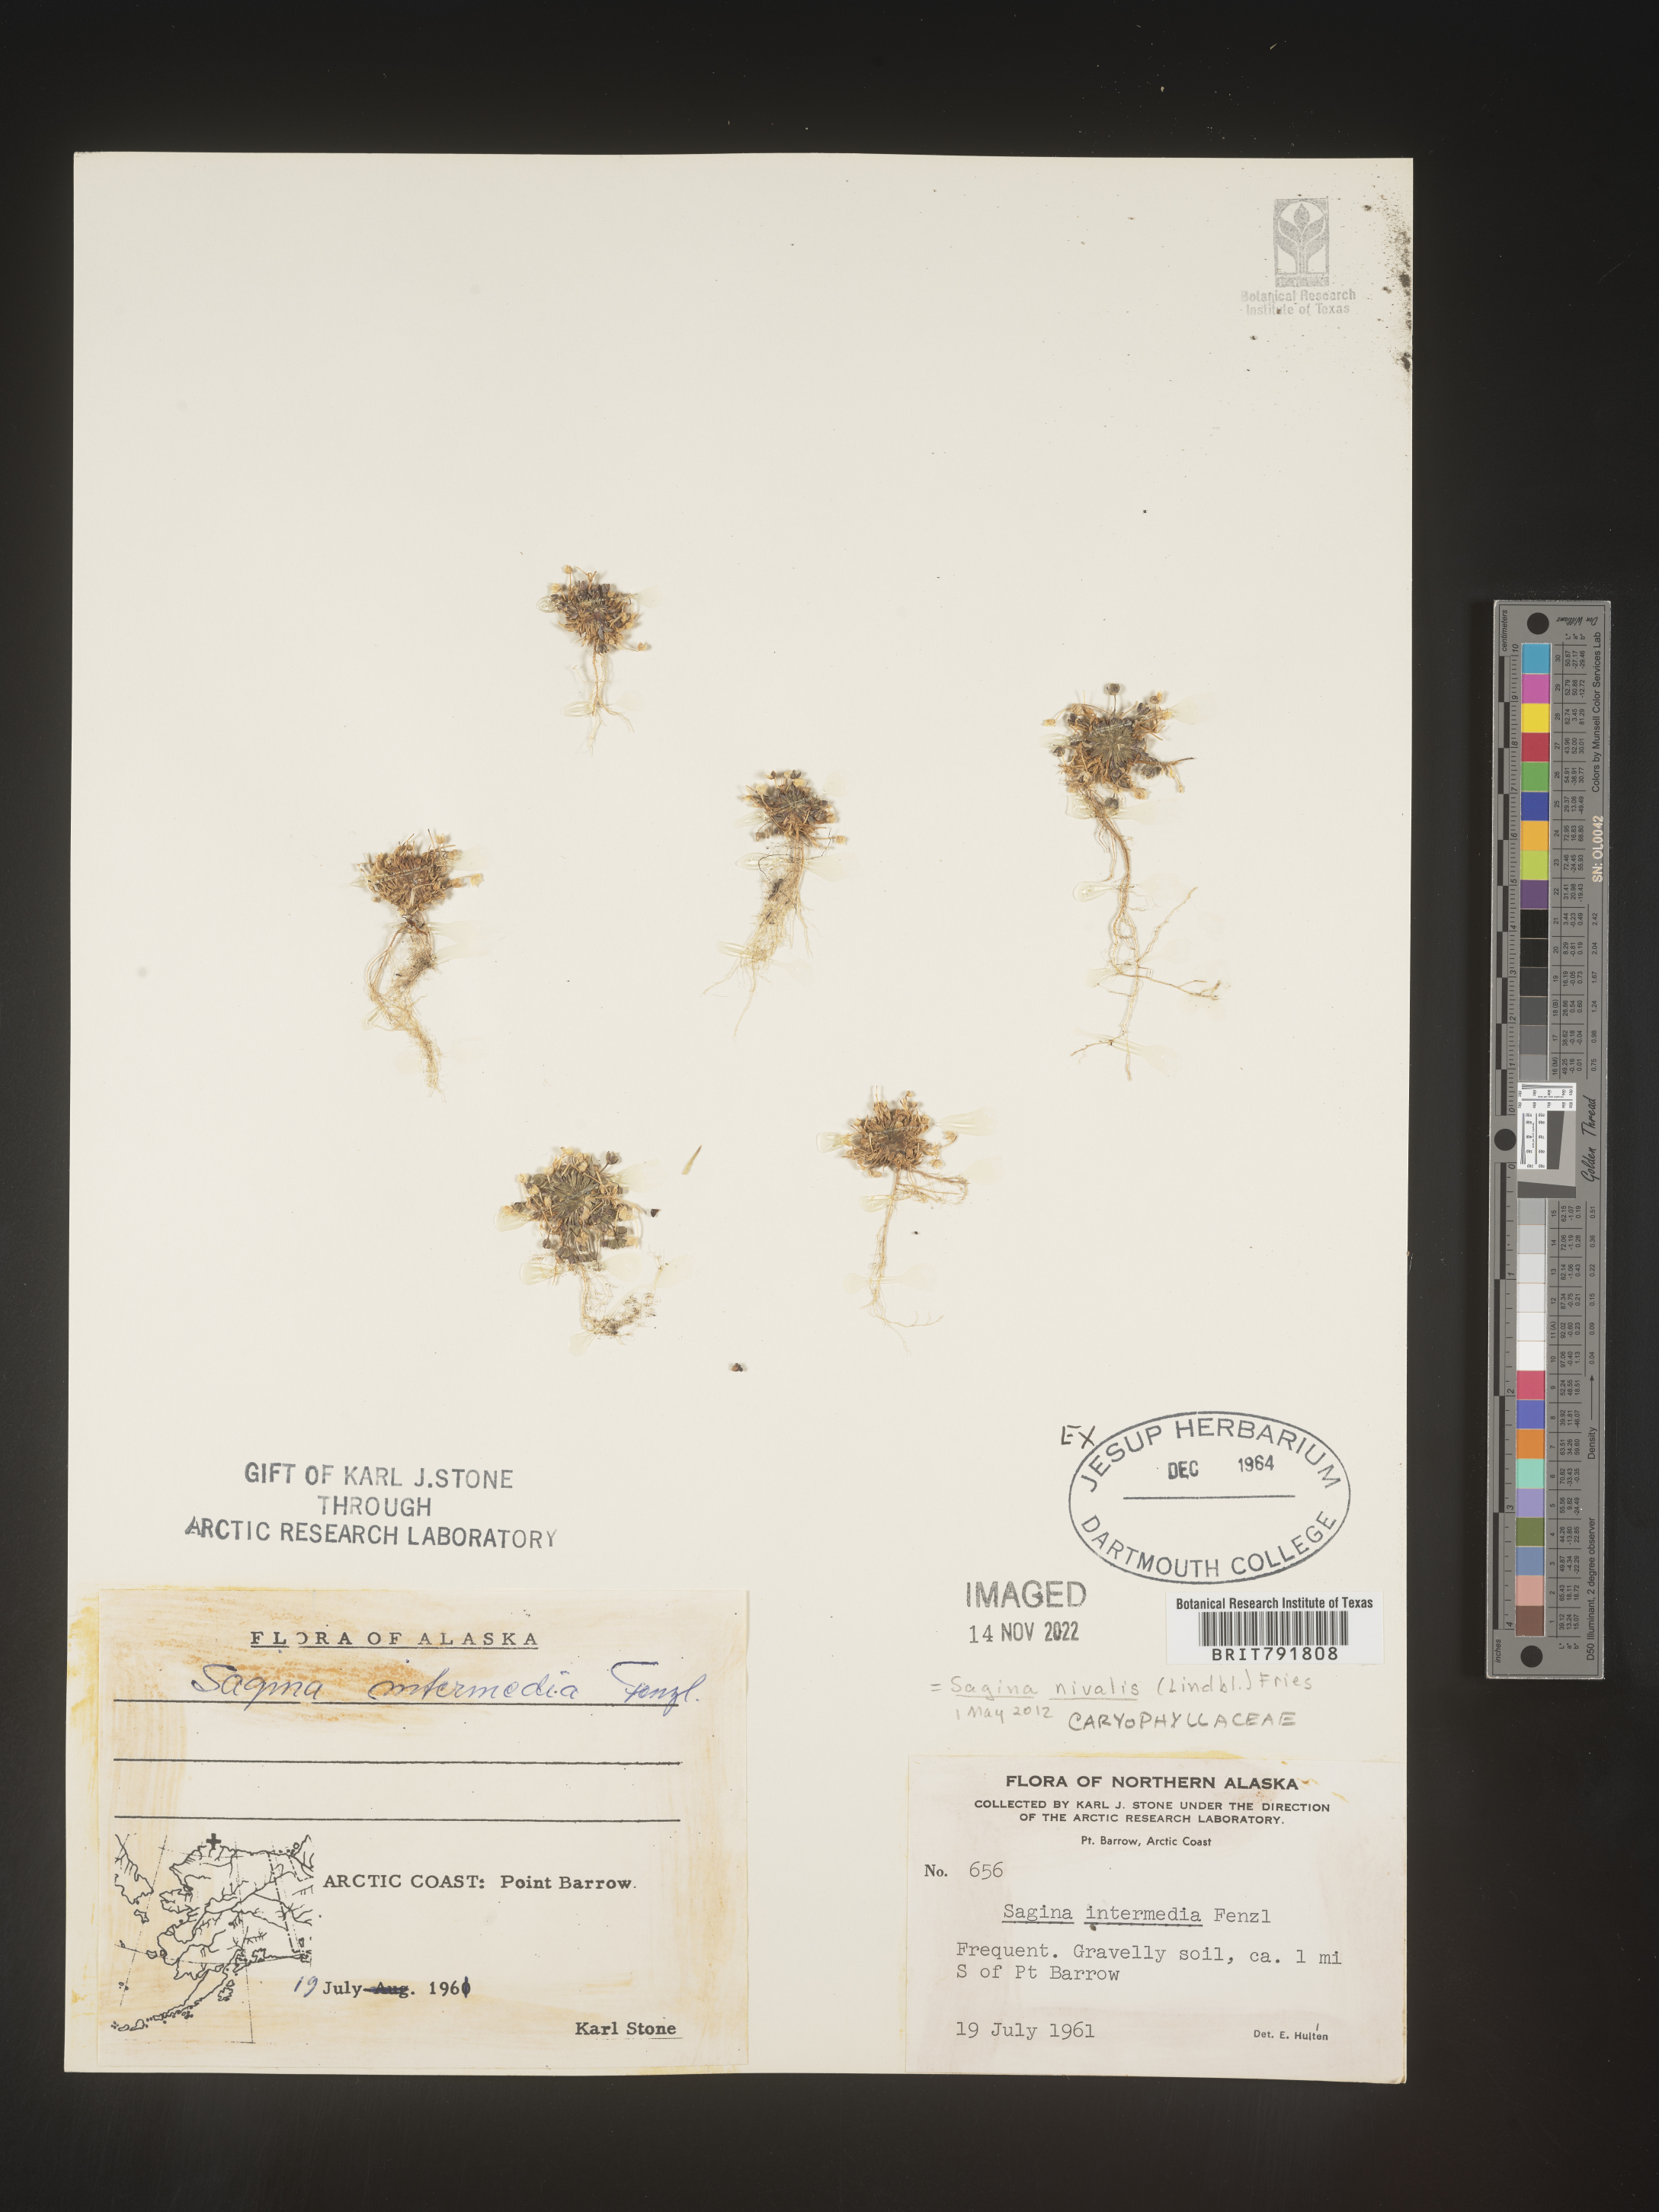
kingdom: Plantae
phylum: Tracheophyta
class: Magnoliopsida
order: Caryophyllales
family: Caryophyllaceae
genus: Sagina
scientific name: Sagina
